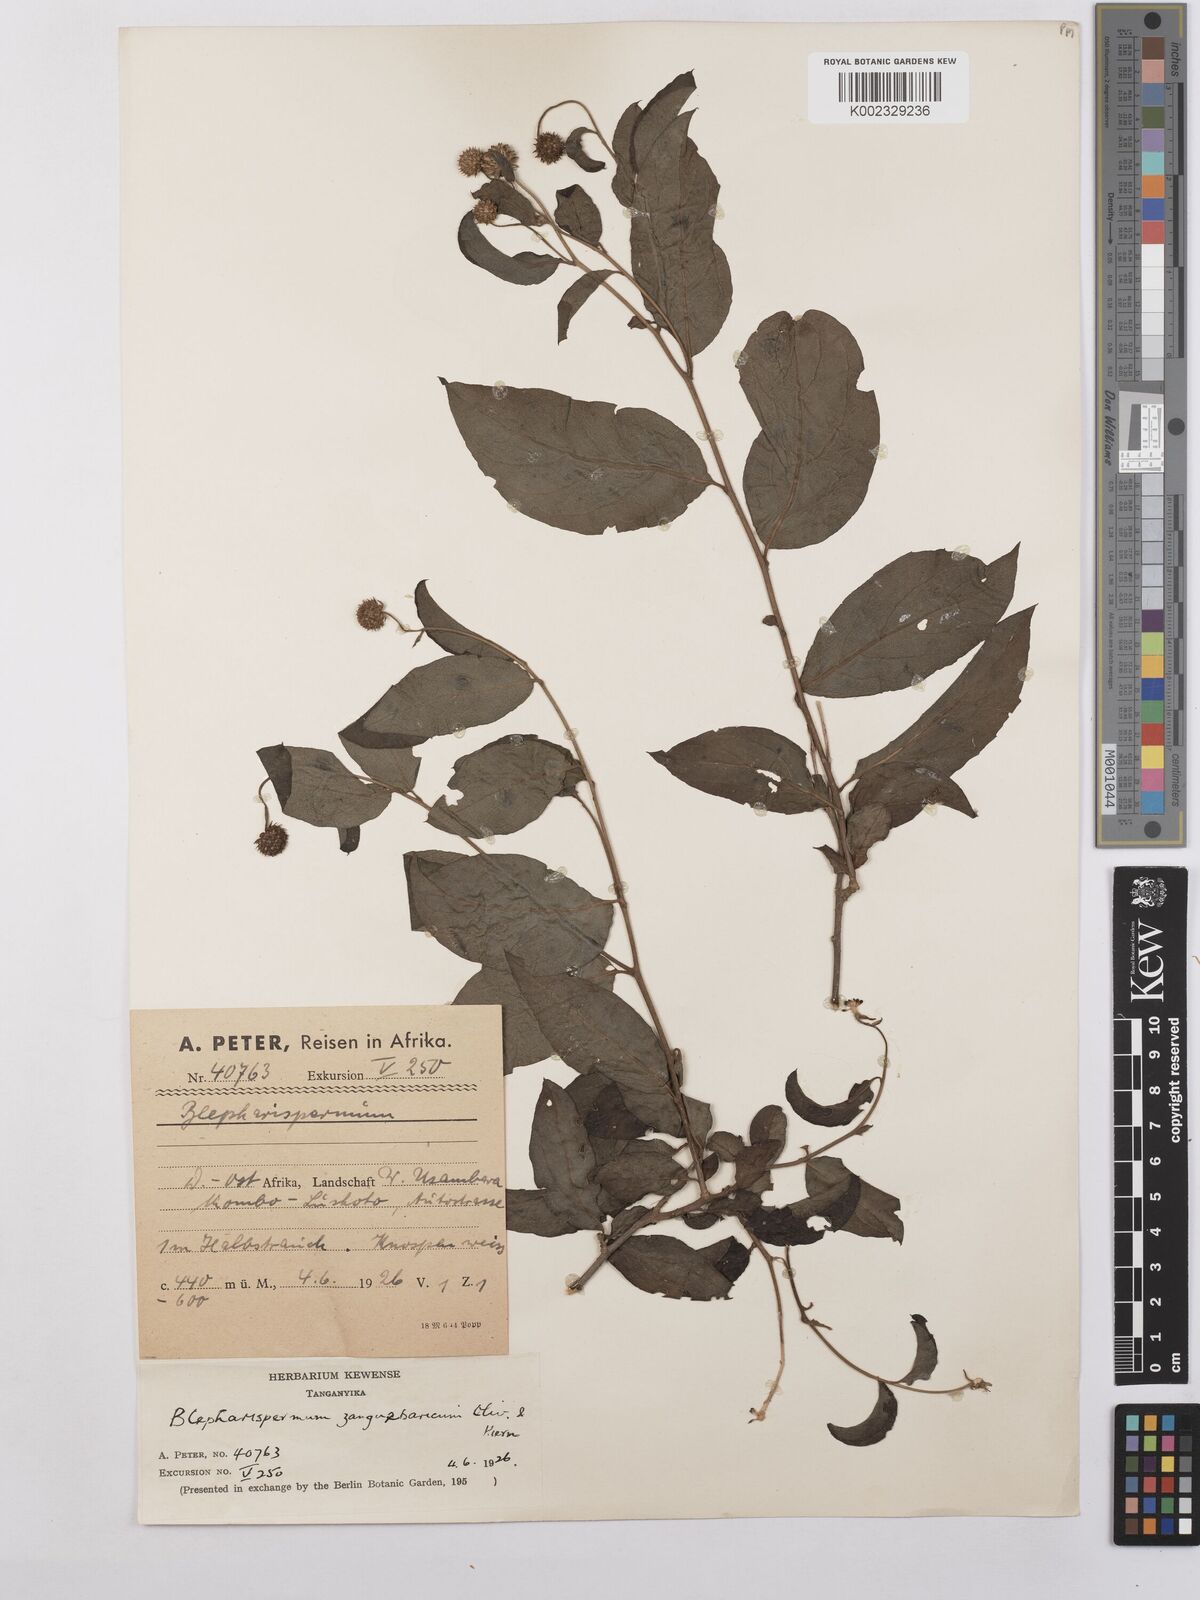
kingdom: Plantae
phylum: Tracheophyta
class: Magnoliopsida
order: Asterales
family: Asteraceae
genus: Blepharispermum
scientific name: Blepharispermum zanguebaricum
